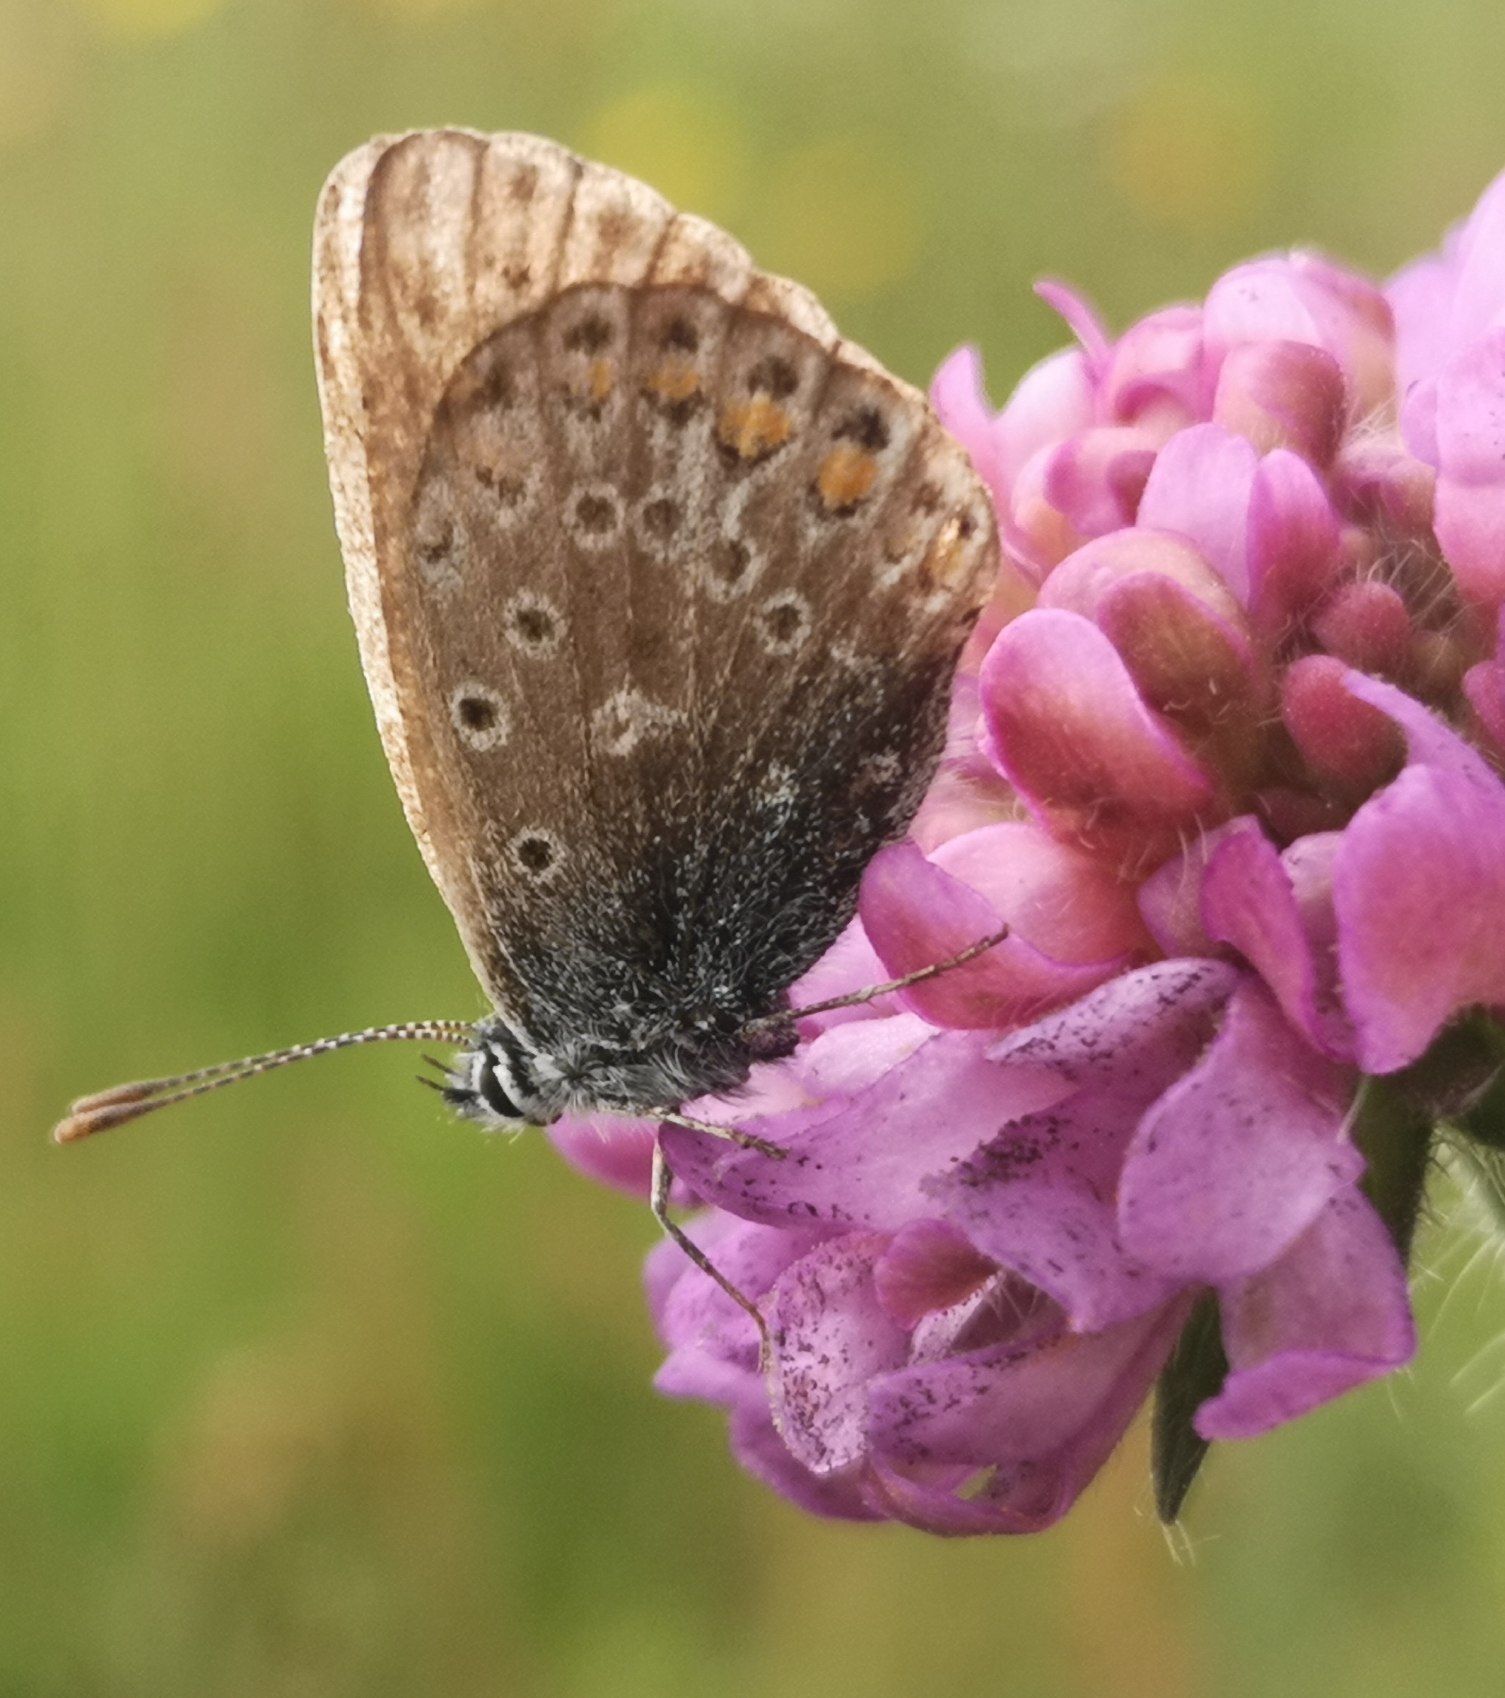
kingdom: Animalia
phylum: Arthropoda
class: Insecta
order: Lepidoptera
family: Lycaenidae
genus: Polyommatus
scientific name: Polyommatus icarus
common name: Almindelig blåfugl
